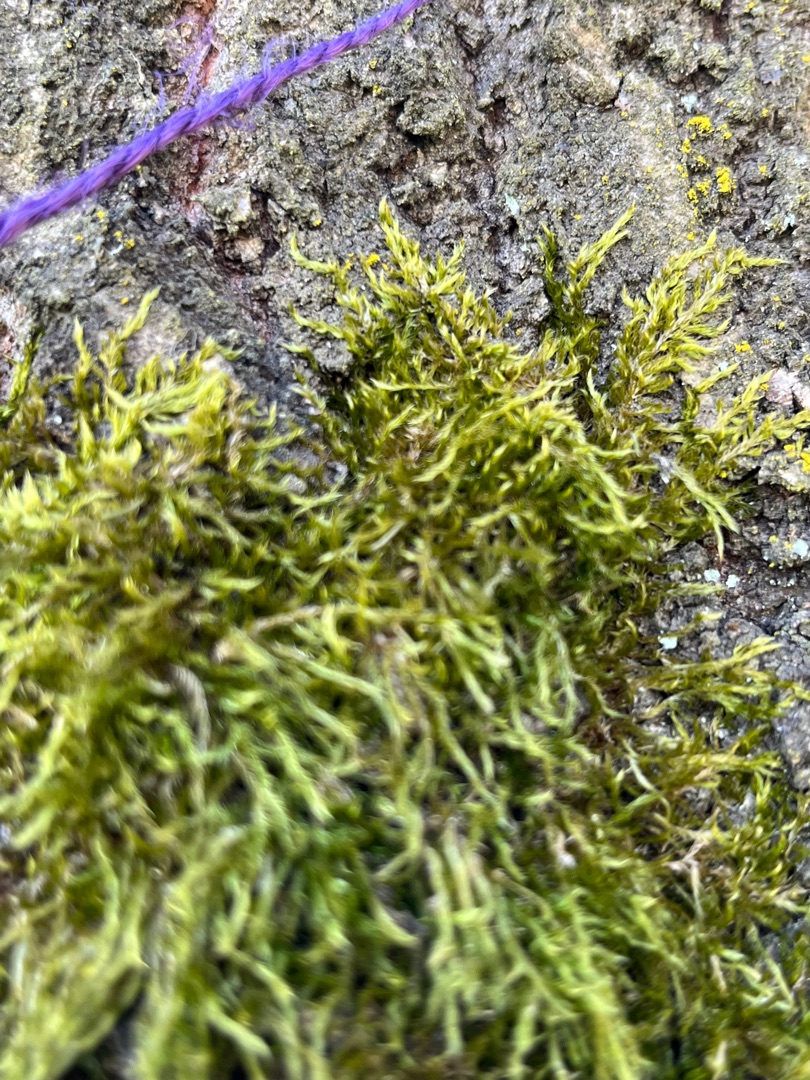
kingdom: Plantae
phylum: Bryophyta
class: Bryopsida
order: Hypnales
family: Hypnaceae
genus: Hypnum
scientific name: Hypnum
